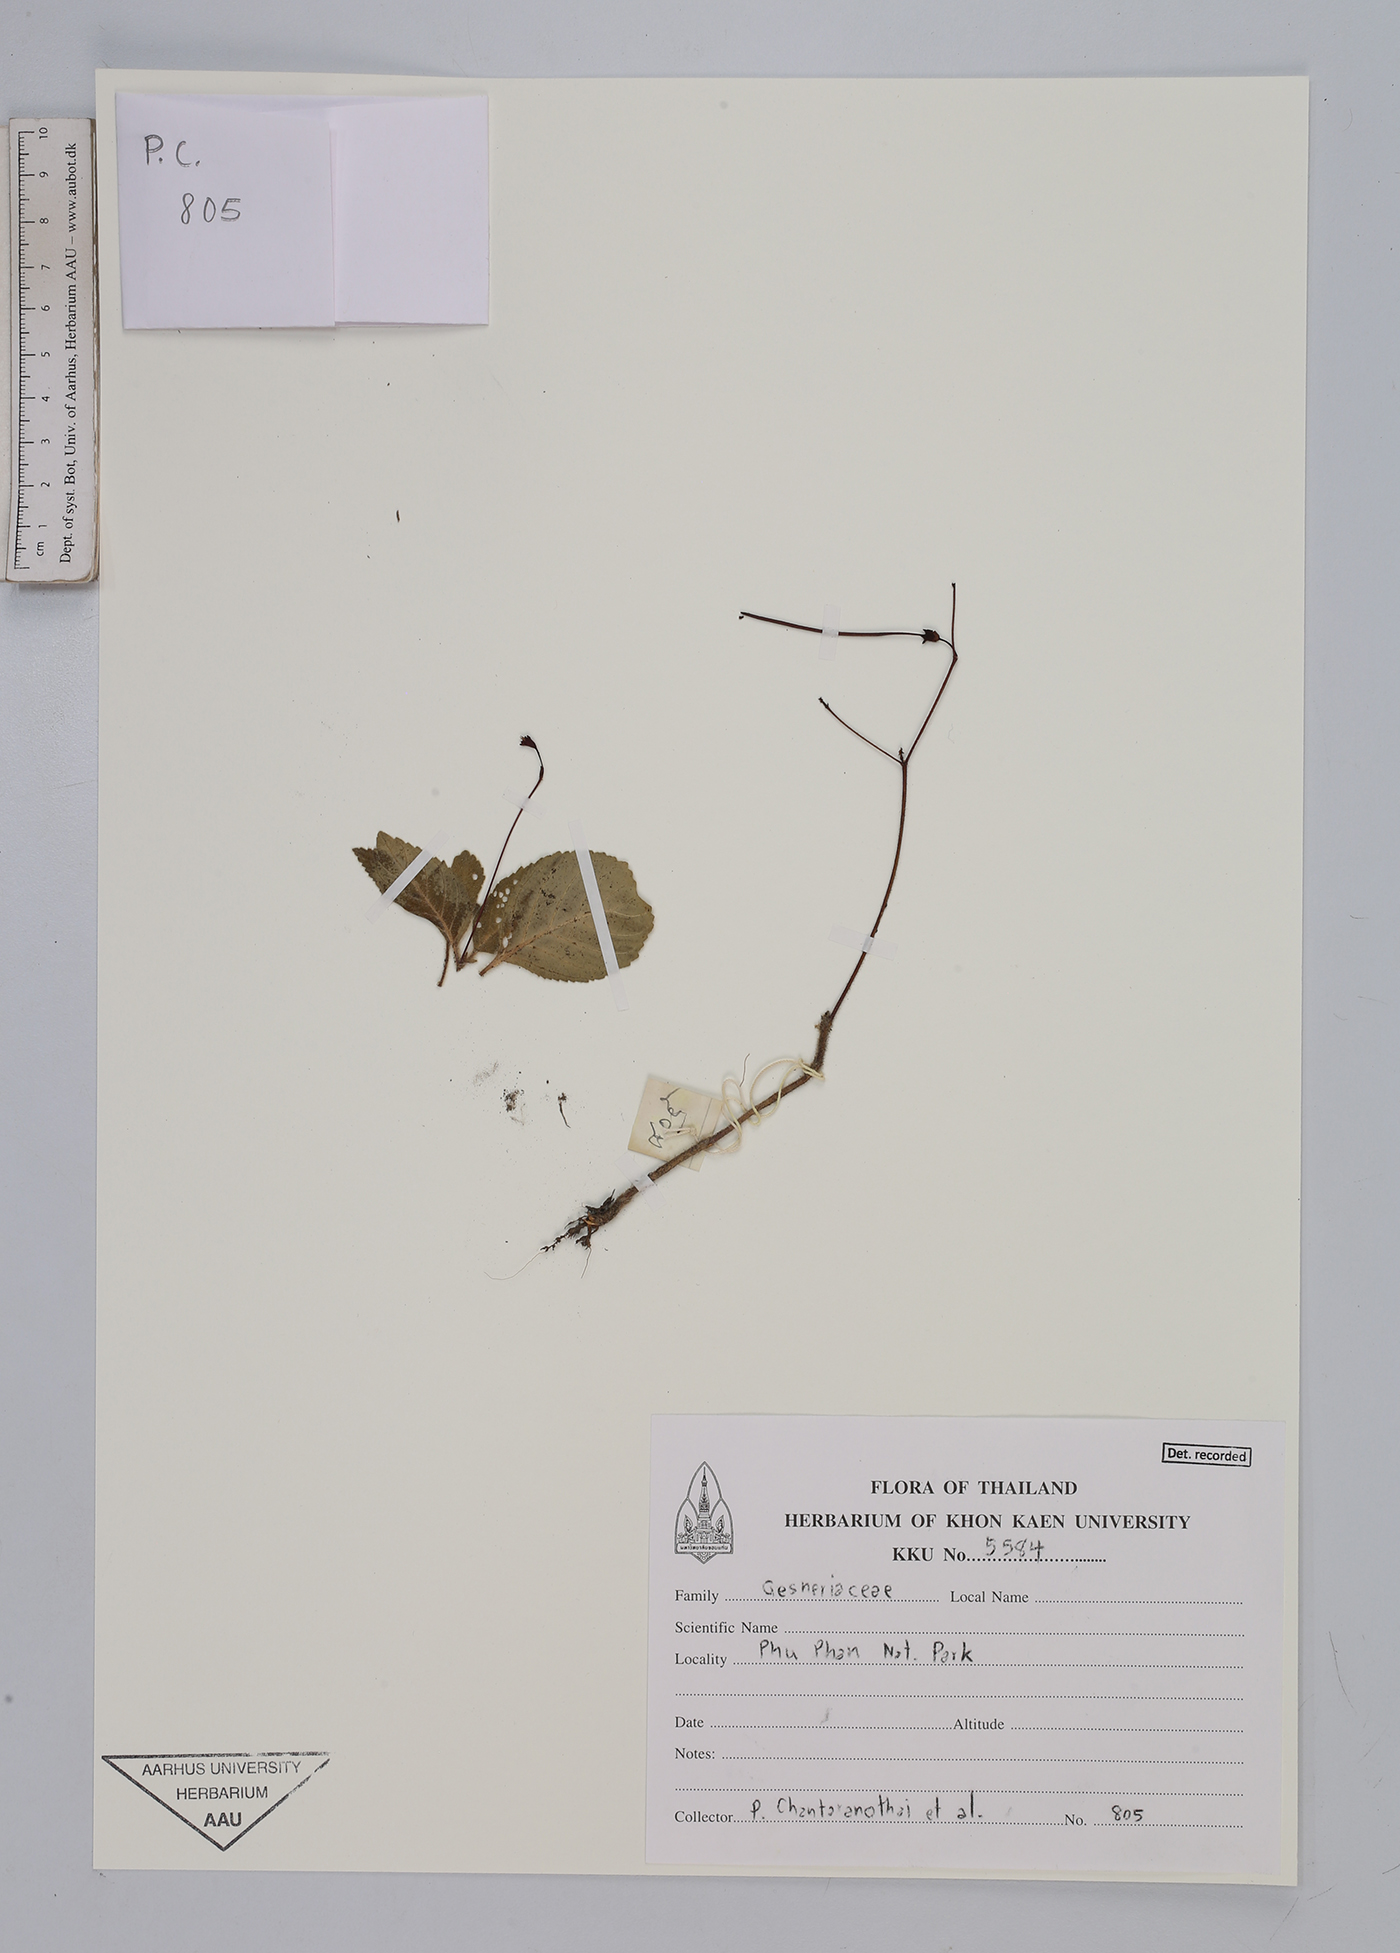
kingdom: Plantae
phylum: Tracheophyta
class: Magnoliopsida
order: Lamiales
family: Gesneriaceae
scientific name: Gesneriaceae
